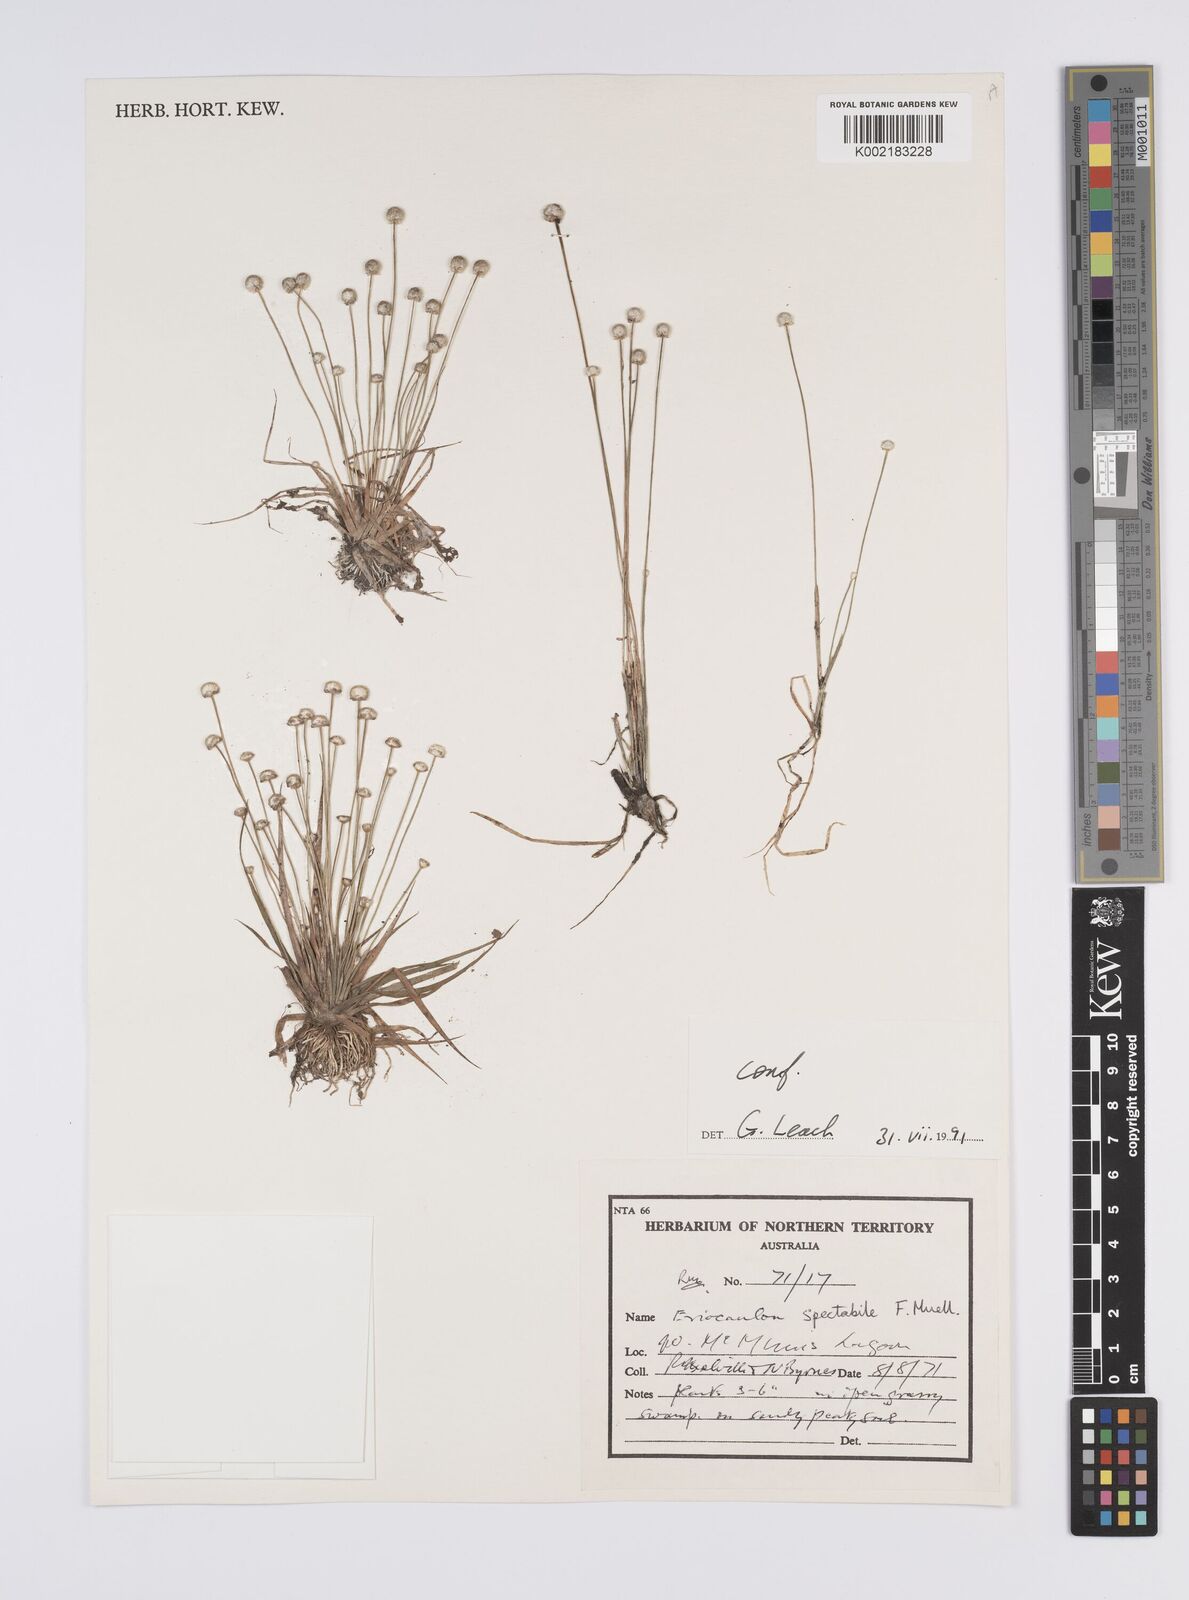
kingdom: Plantae
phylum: Tracheophyta
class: Liliopsida
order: Poales
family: Eriocaulaceae
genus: Eriocaulon
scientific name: Eriocaulon spectabile
